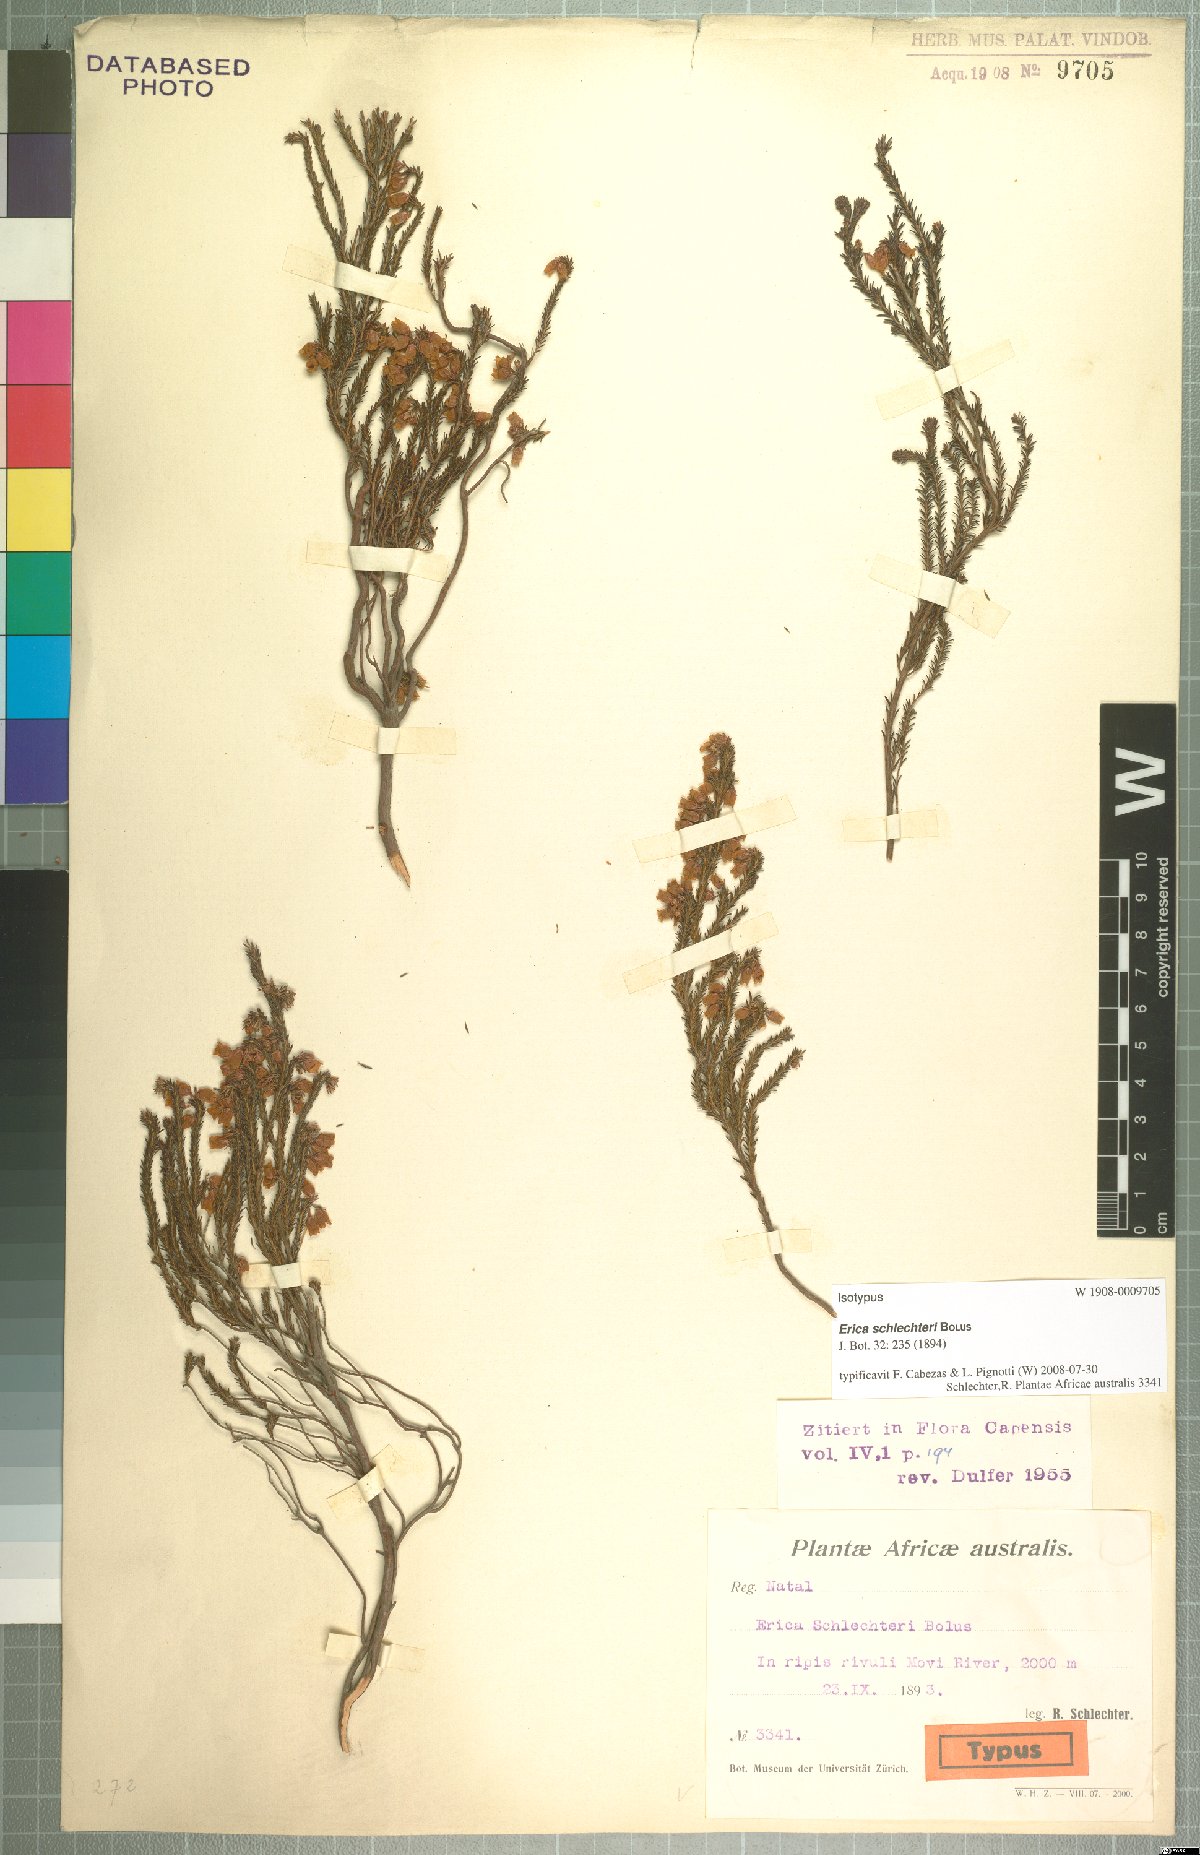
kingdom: Plantae
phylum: Tracheophyta
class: Magnoliopsida
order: Ericales
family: Ericaceae
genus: Erica
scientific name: Erica schlechteri
